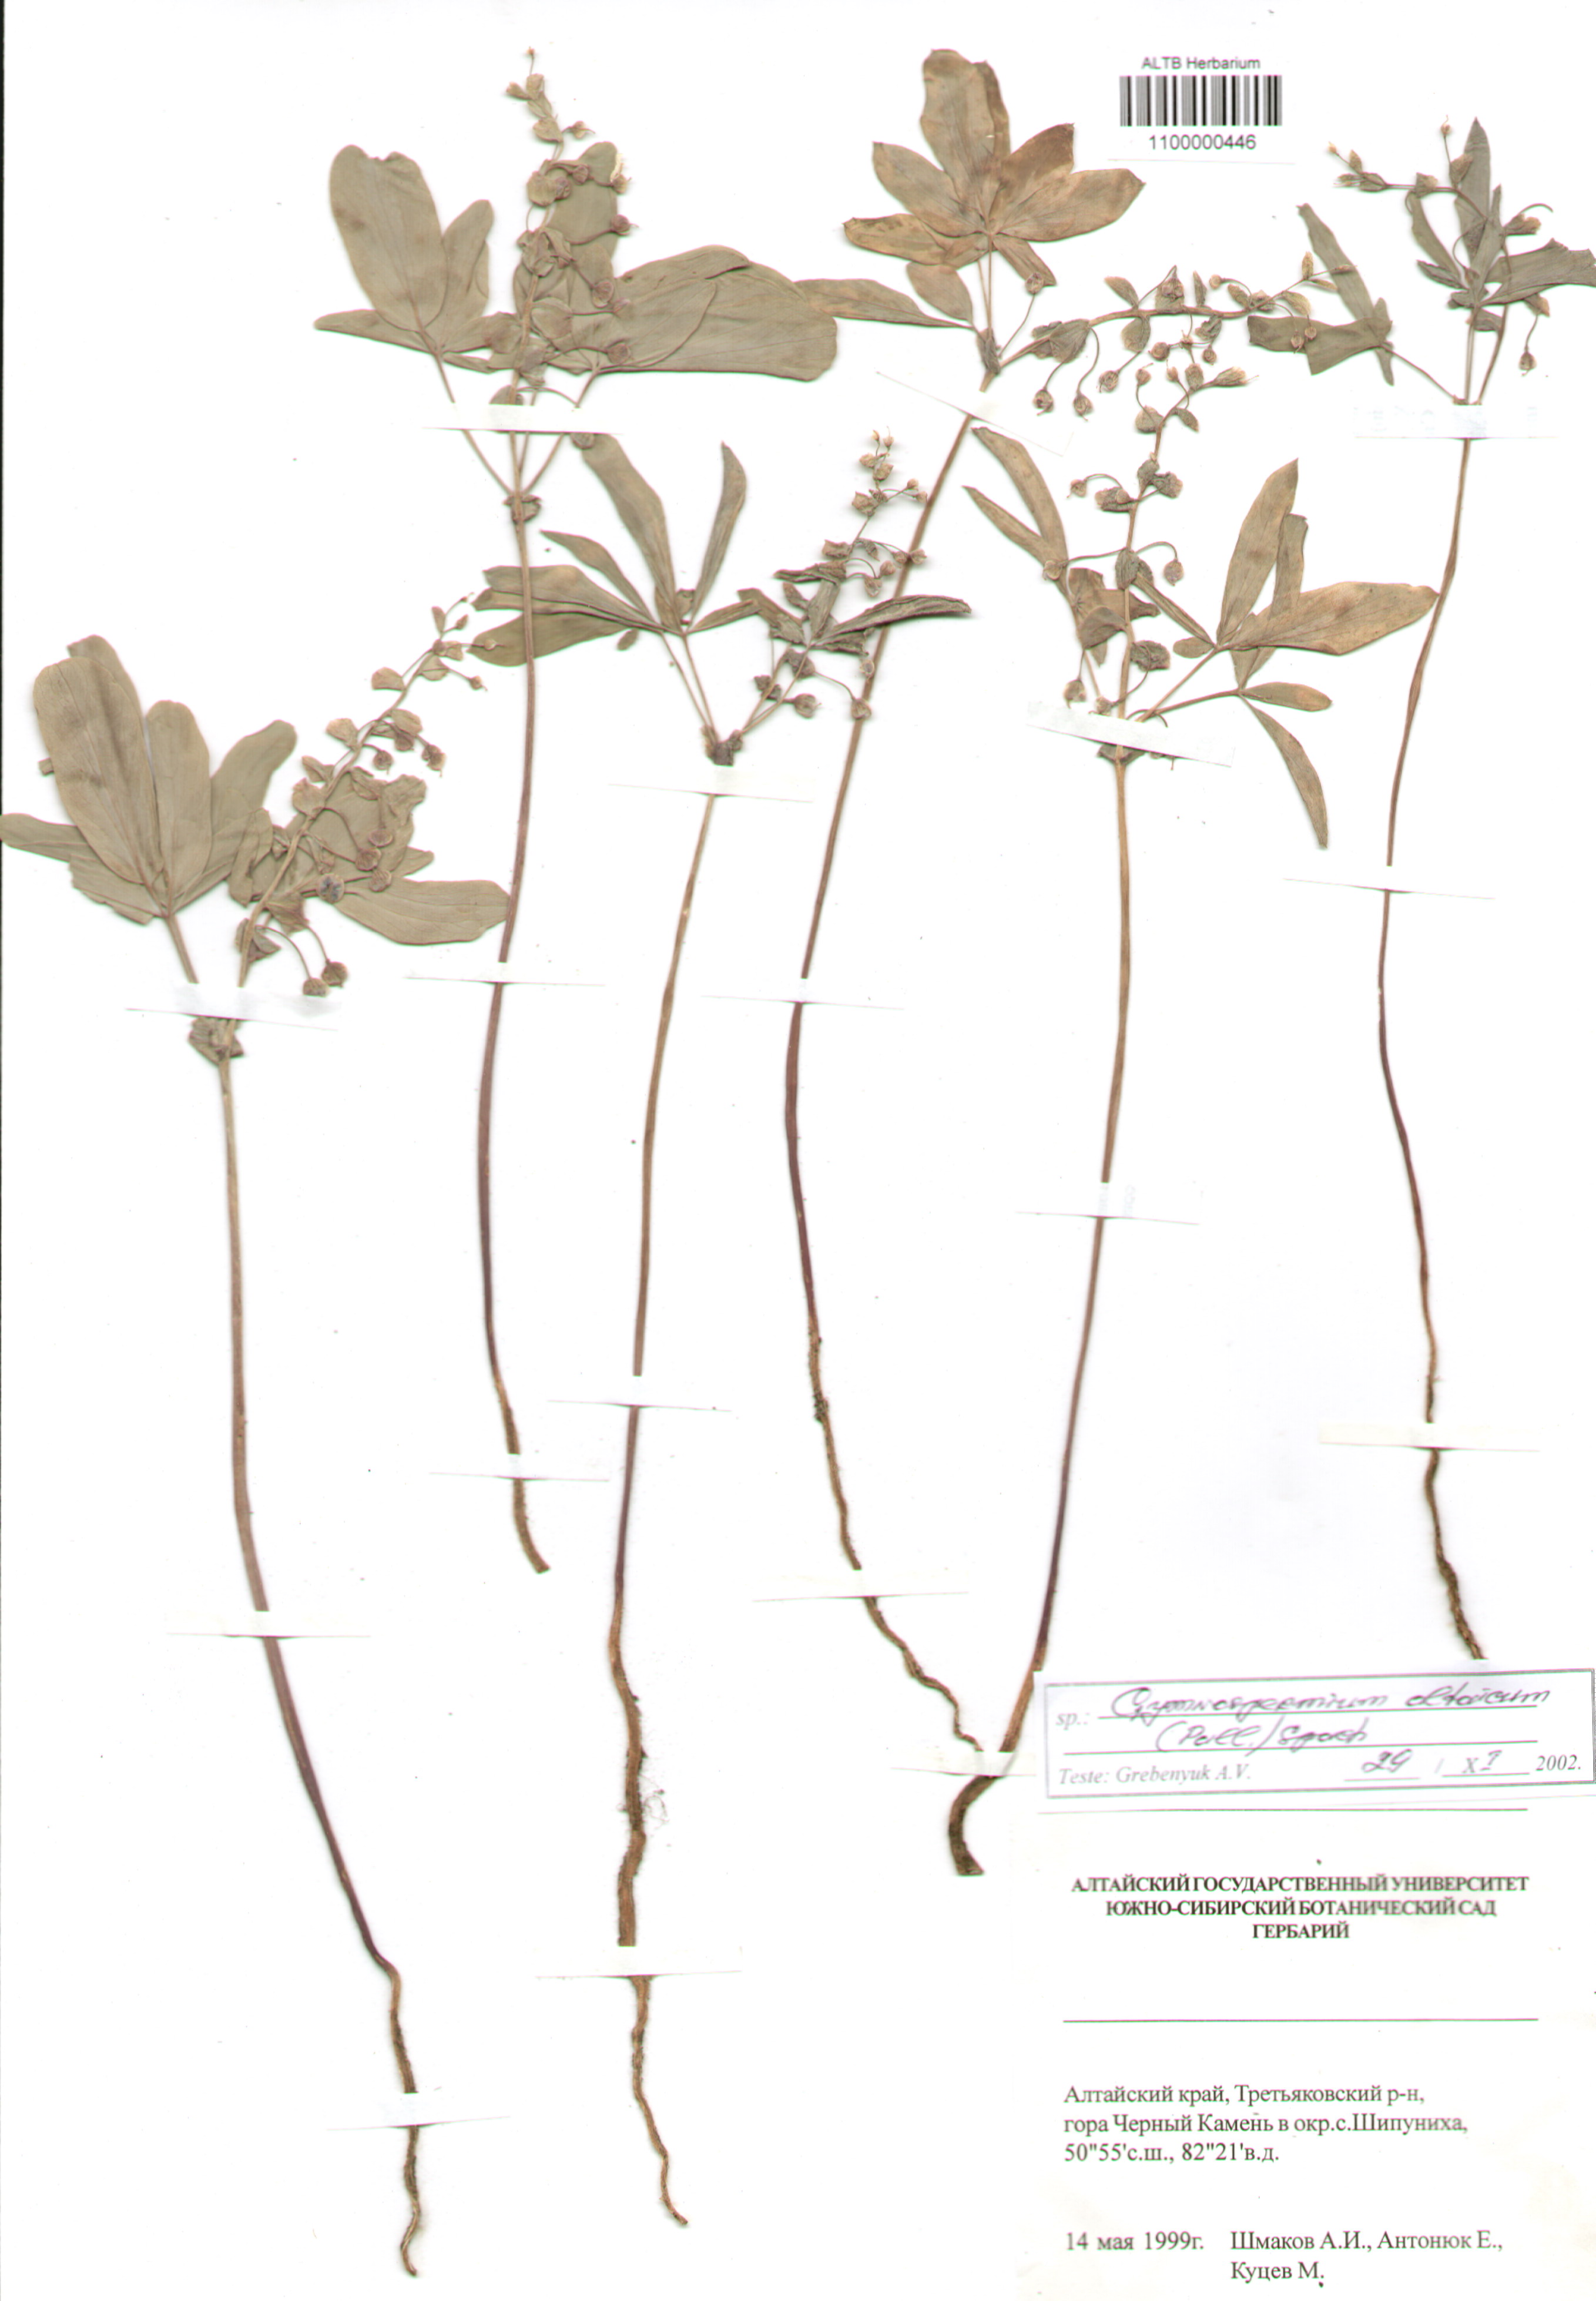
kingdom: Plantae
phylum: Tracheophyta
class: Magnoliopsida
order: Ranunculales
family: Berberidaceae
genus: Gymnospermium
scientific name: Gymnospermium altaicum
